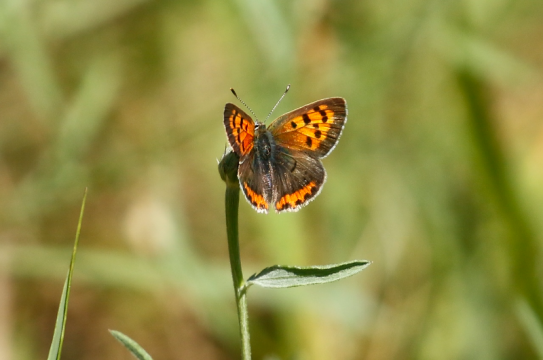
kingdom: Animalia
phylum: Arthropoda
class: Insecta
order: Lepidoptera
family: Lycaenidae
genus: Lycaena
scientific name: Lycaena phlaeas
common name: American Copper
